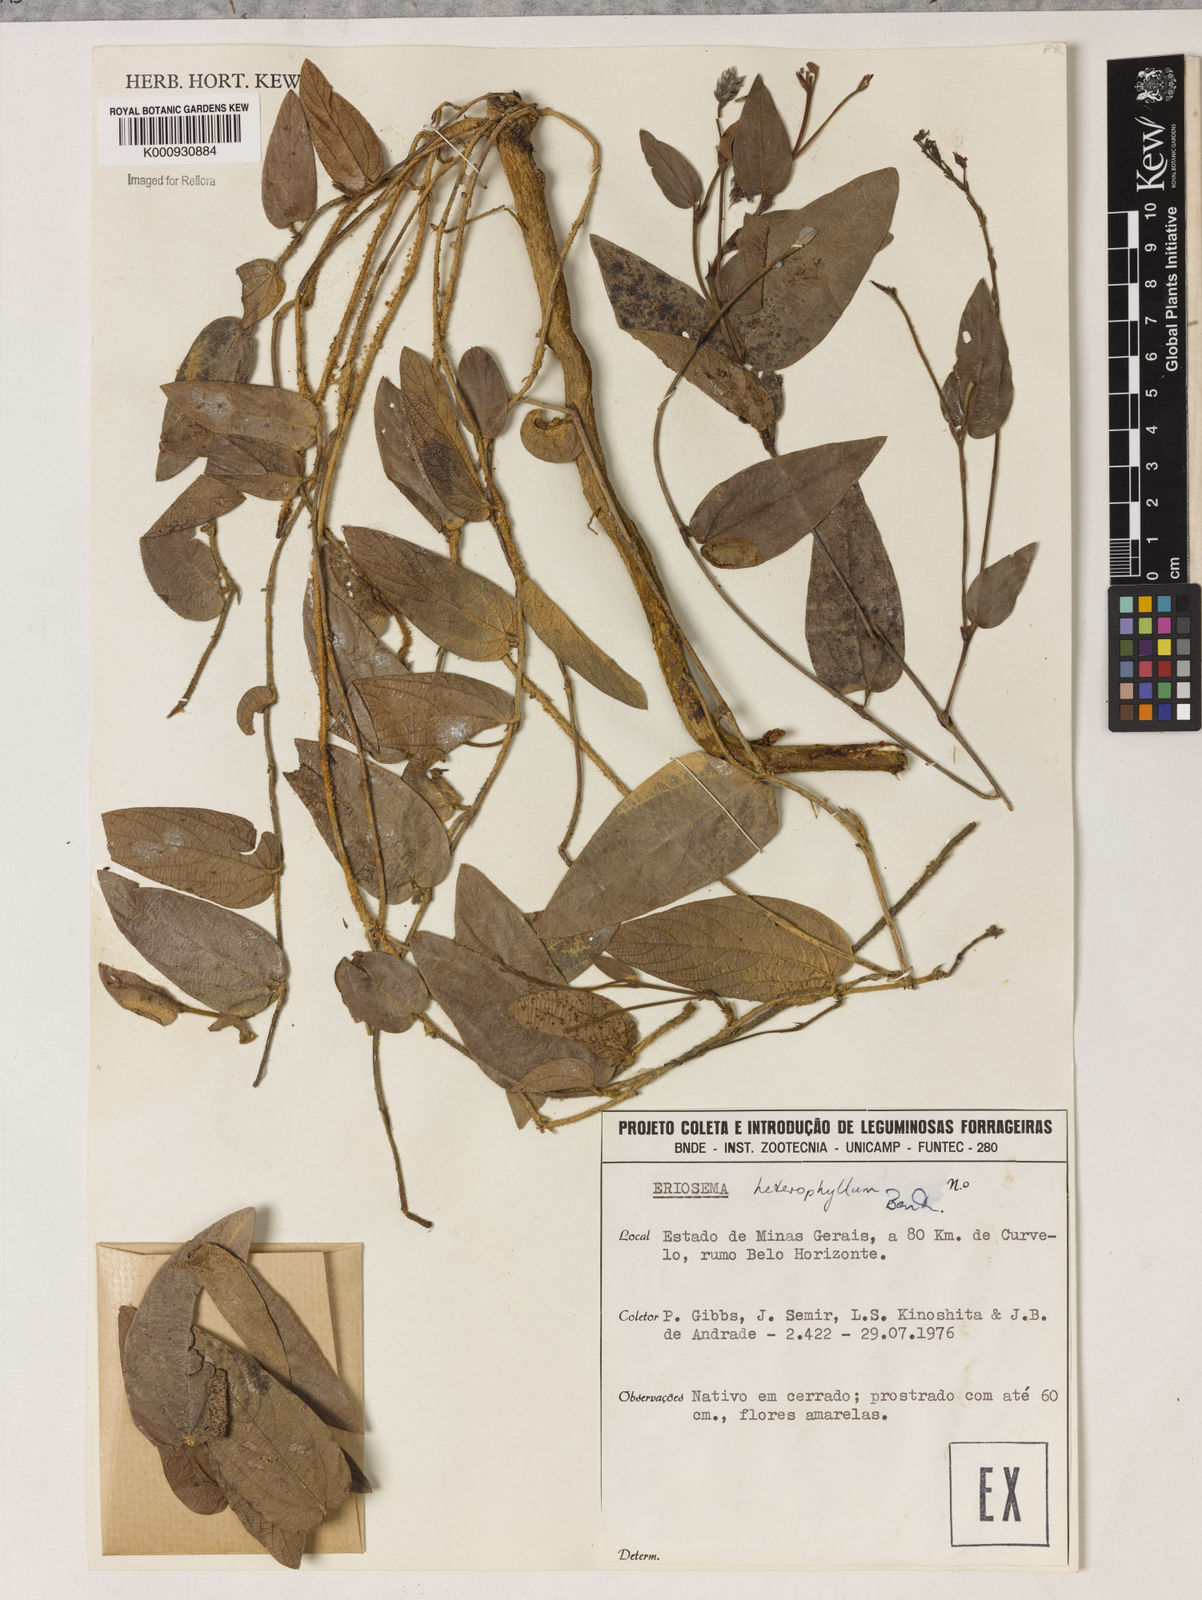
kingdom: Plantae
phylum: Tracheophyta
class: Magnoliopsida
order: Fabales
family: Fabaceae
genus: Eriosema
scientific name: Eriosema heterophyllum
